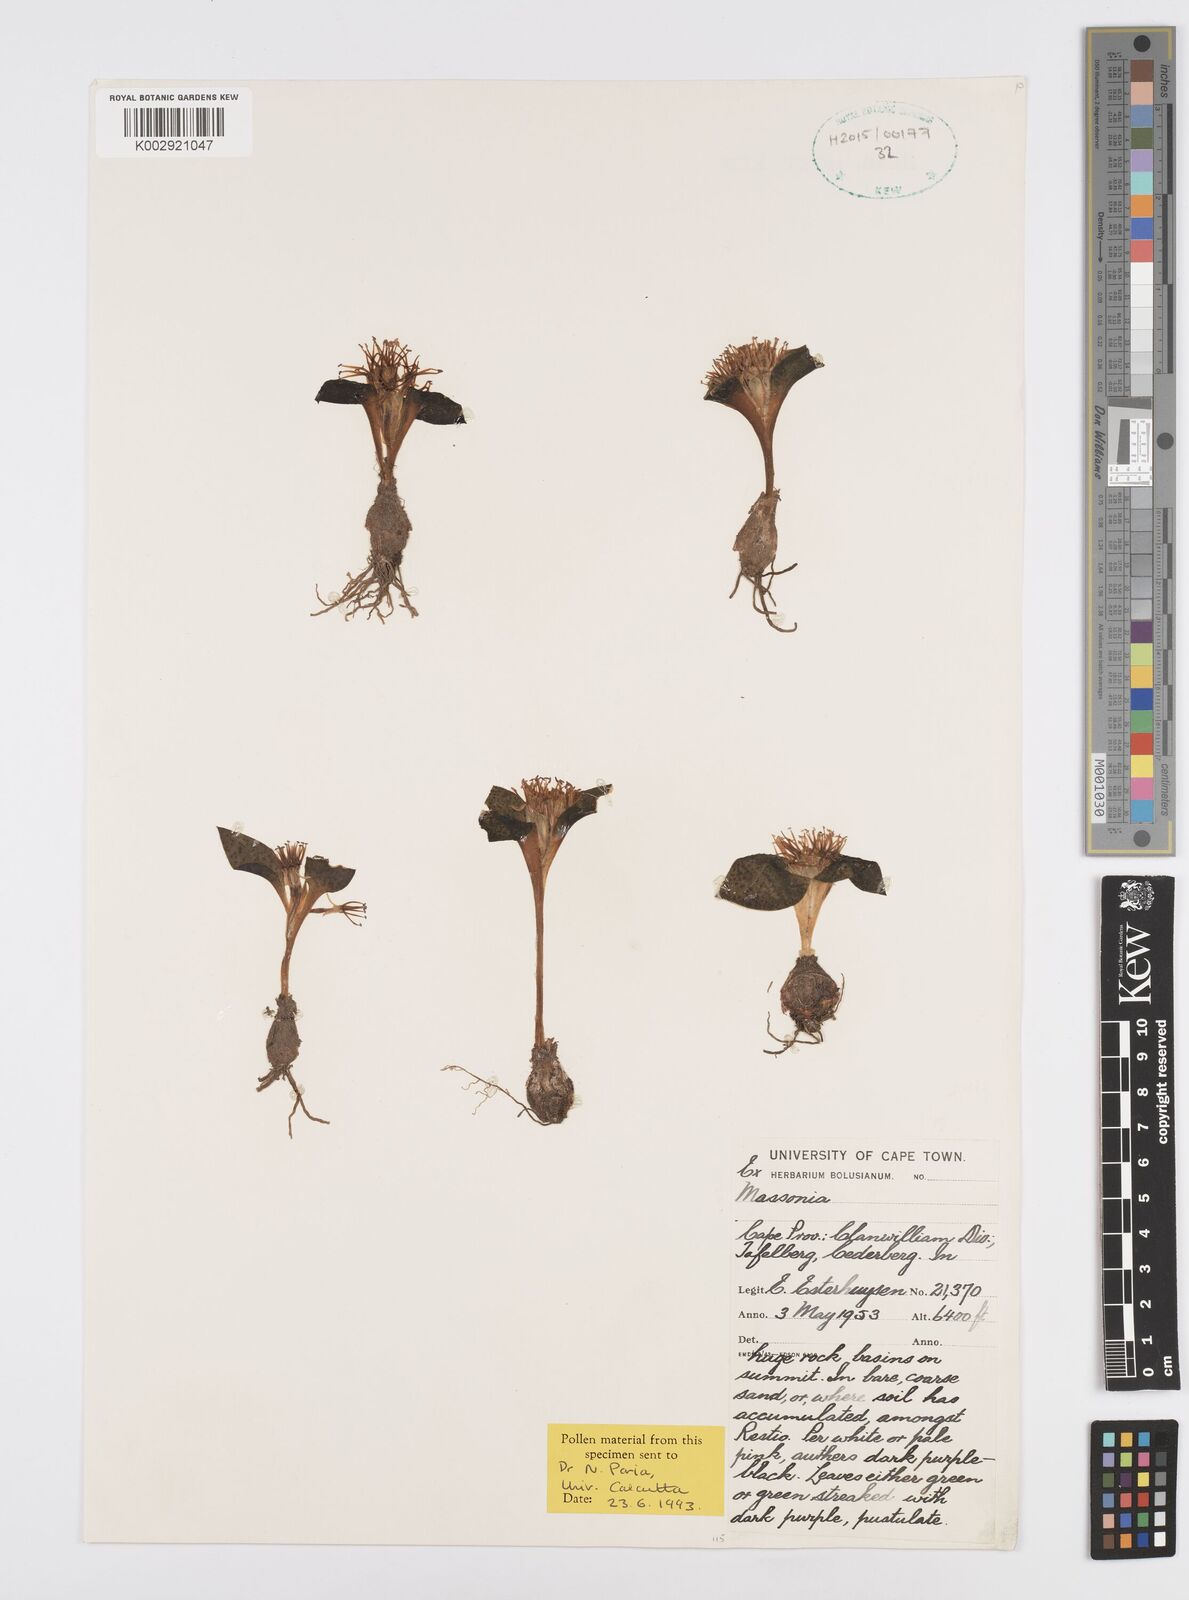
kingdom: Plantae
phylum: Tracheophyta
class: Liliopsida
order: Asparagales
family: Asparagaceae
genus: Massonia
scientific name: Massonia
